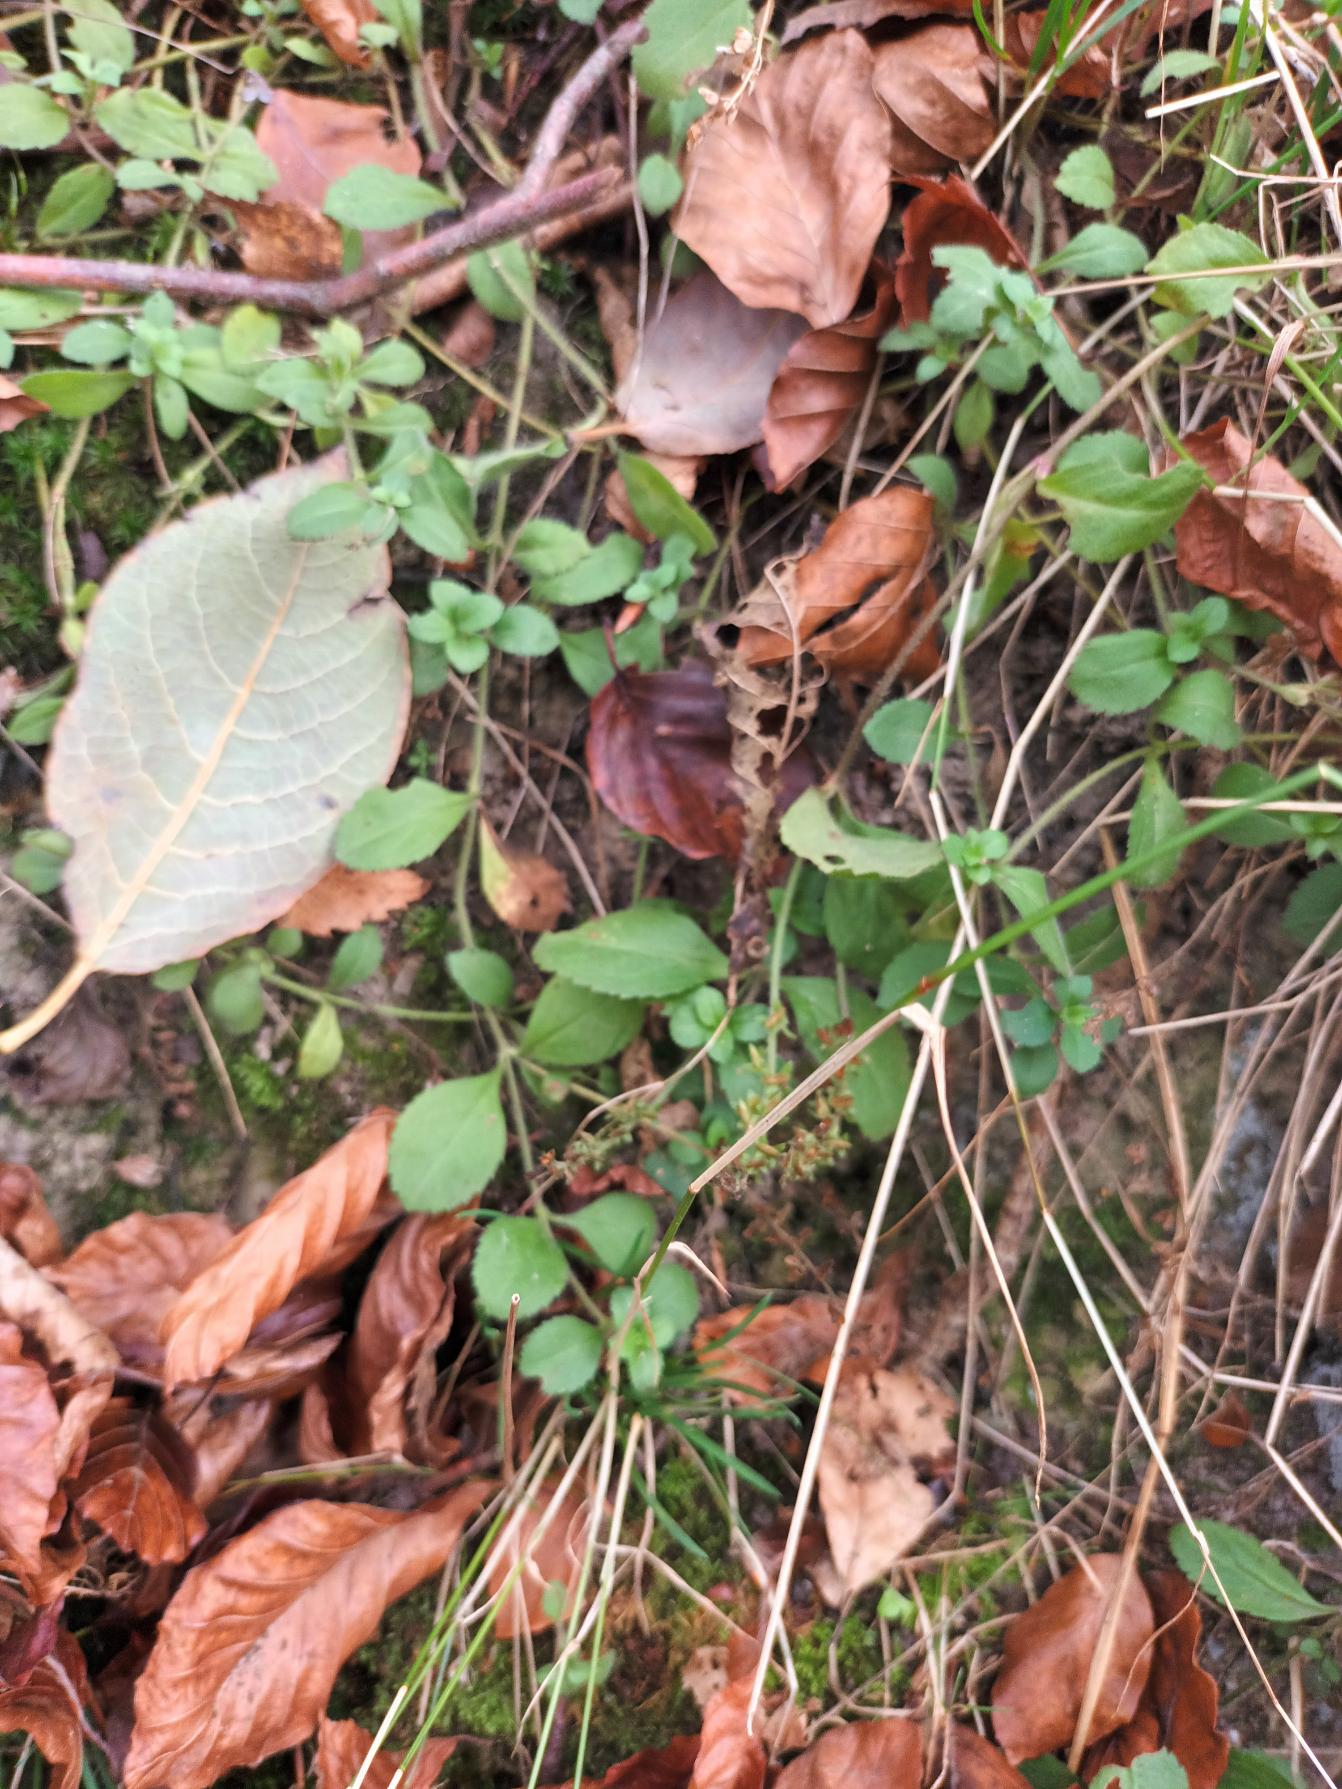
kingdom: Plantae
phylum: Tracheophyta
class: Magnoliopsida
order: Lamiales
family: Plantaginaceae
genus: Veronica
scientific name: Veronica officinalis
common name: Læge-ærenpris
